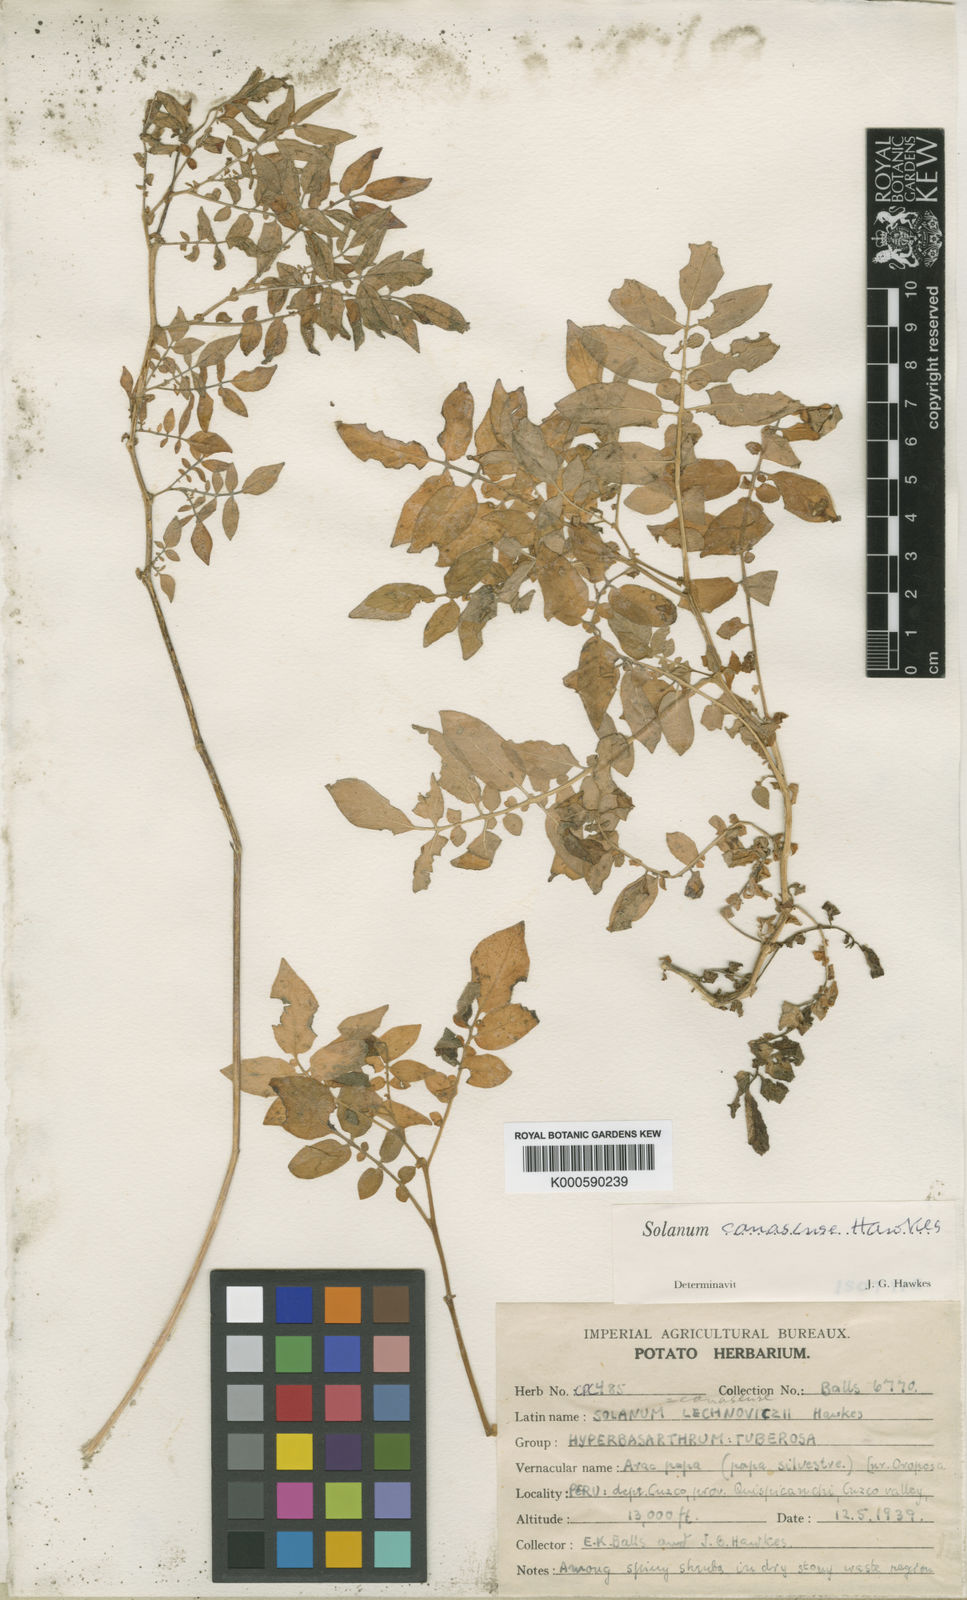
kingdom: Plantae
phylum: Tracheophyta
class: Magnoliopsida
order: Solanales
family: Solanaceae
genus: Solanum
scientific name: Solanum candolleanum
